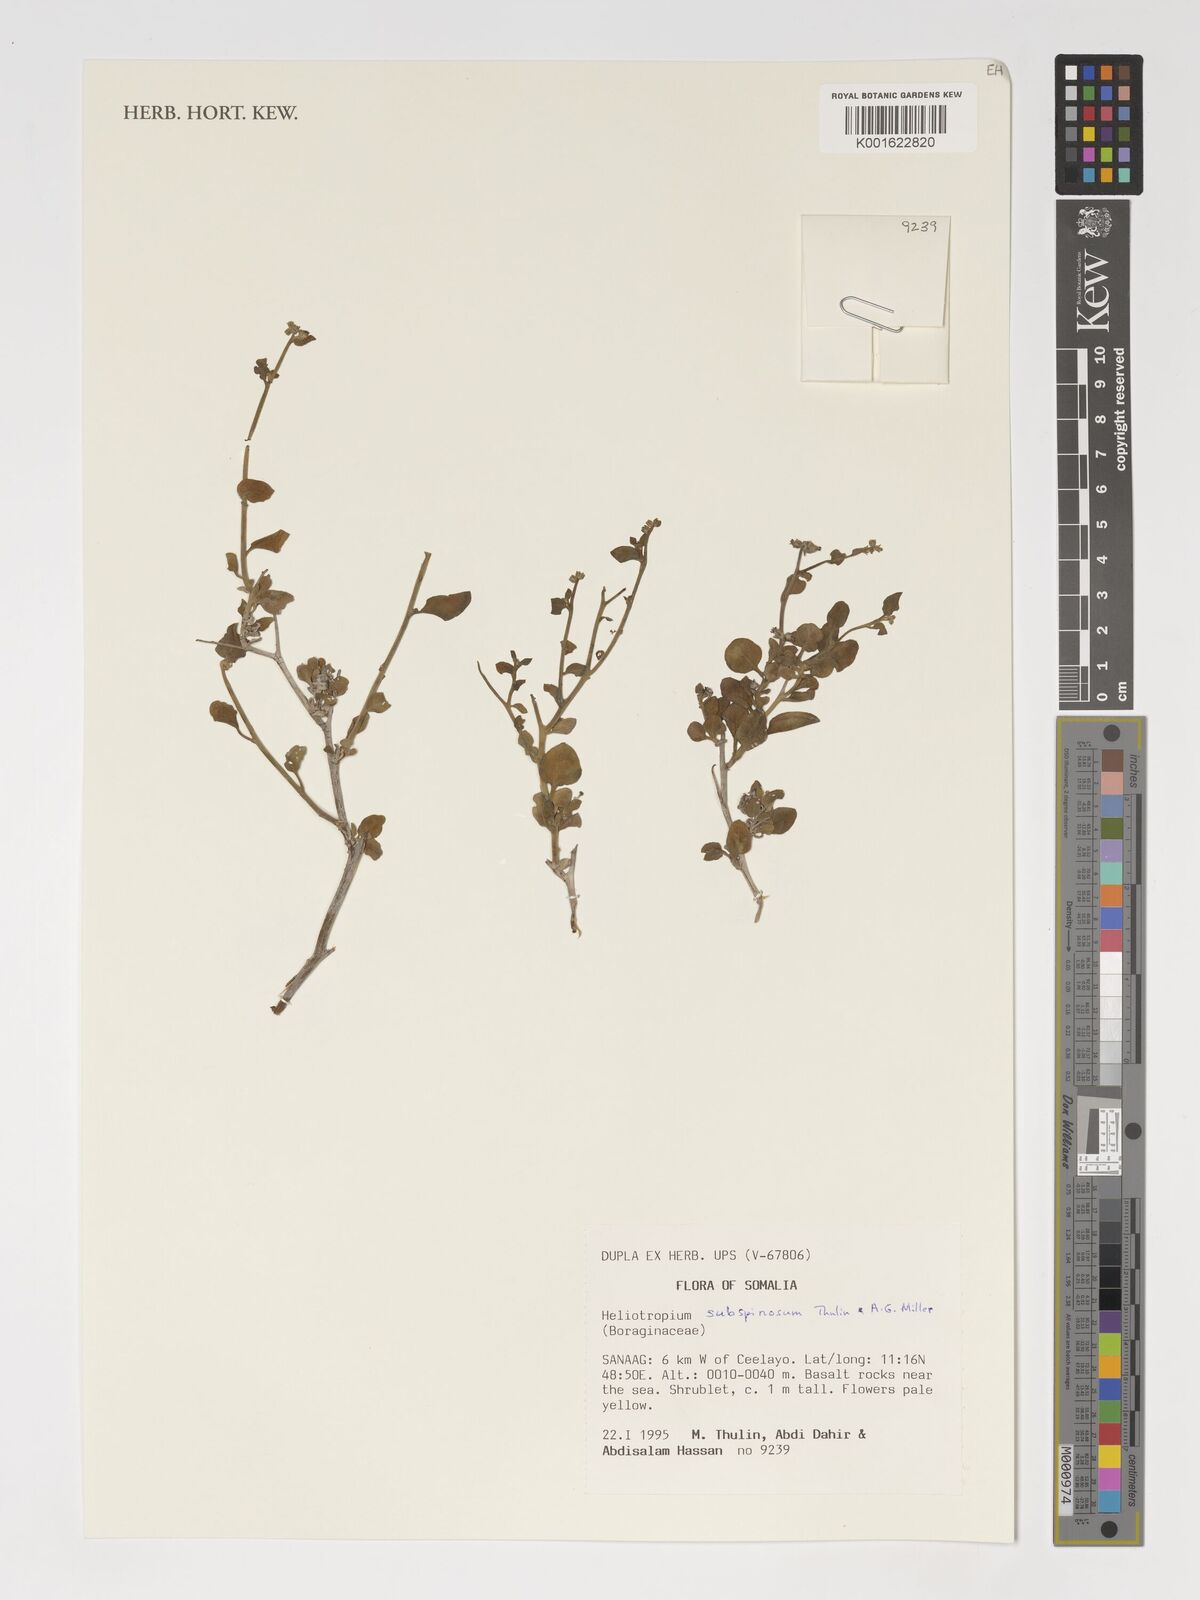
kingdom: Plantae
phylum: Tracheophyta
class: Magnoliopsida
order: Boraginales
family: Heliotropiaceae
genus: Heliotropium
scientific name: Heliotropium subspinosum
